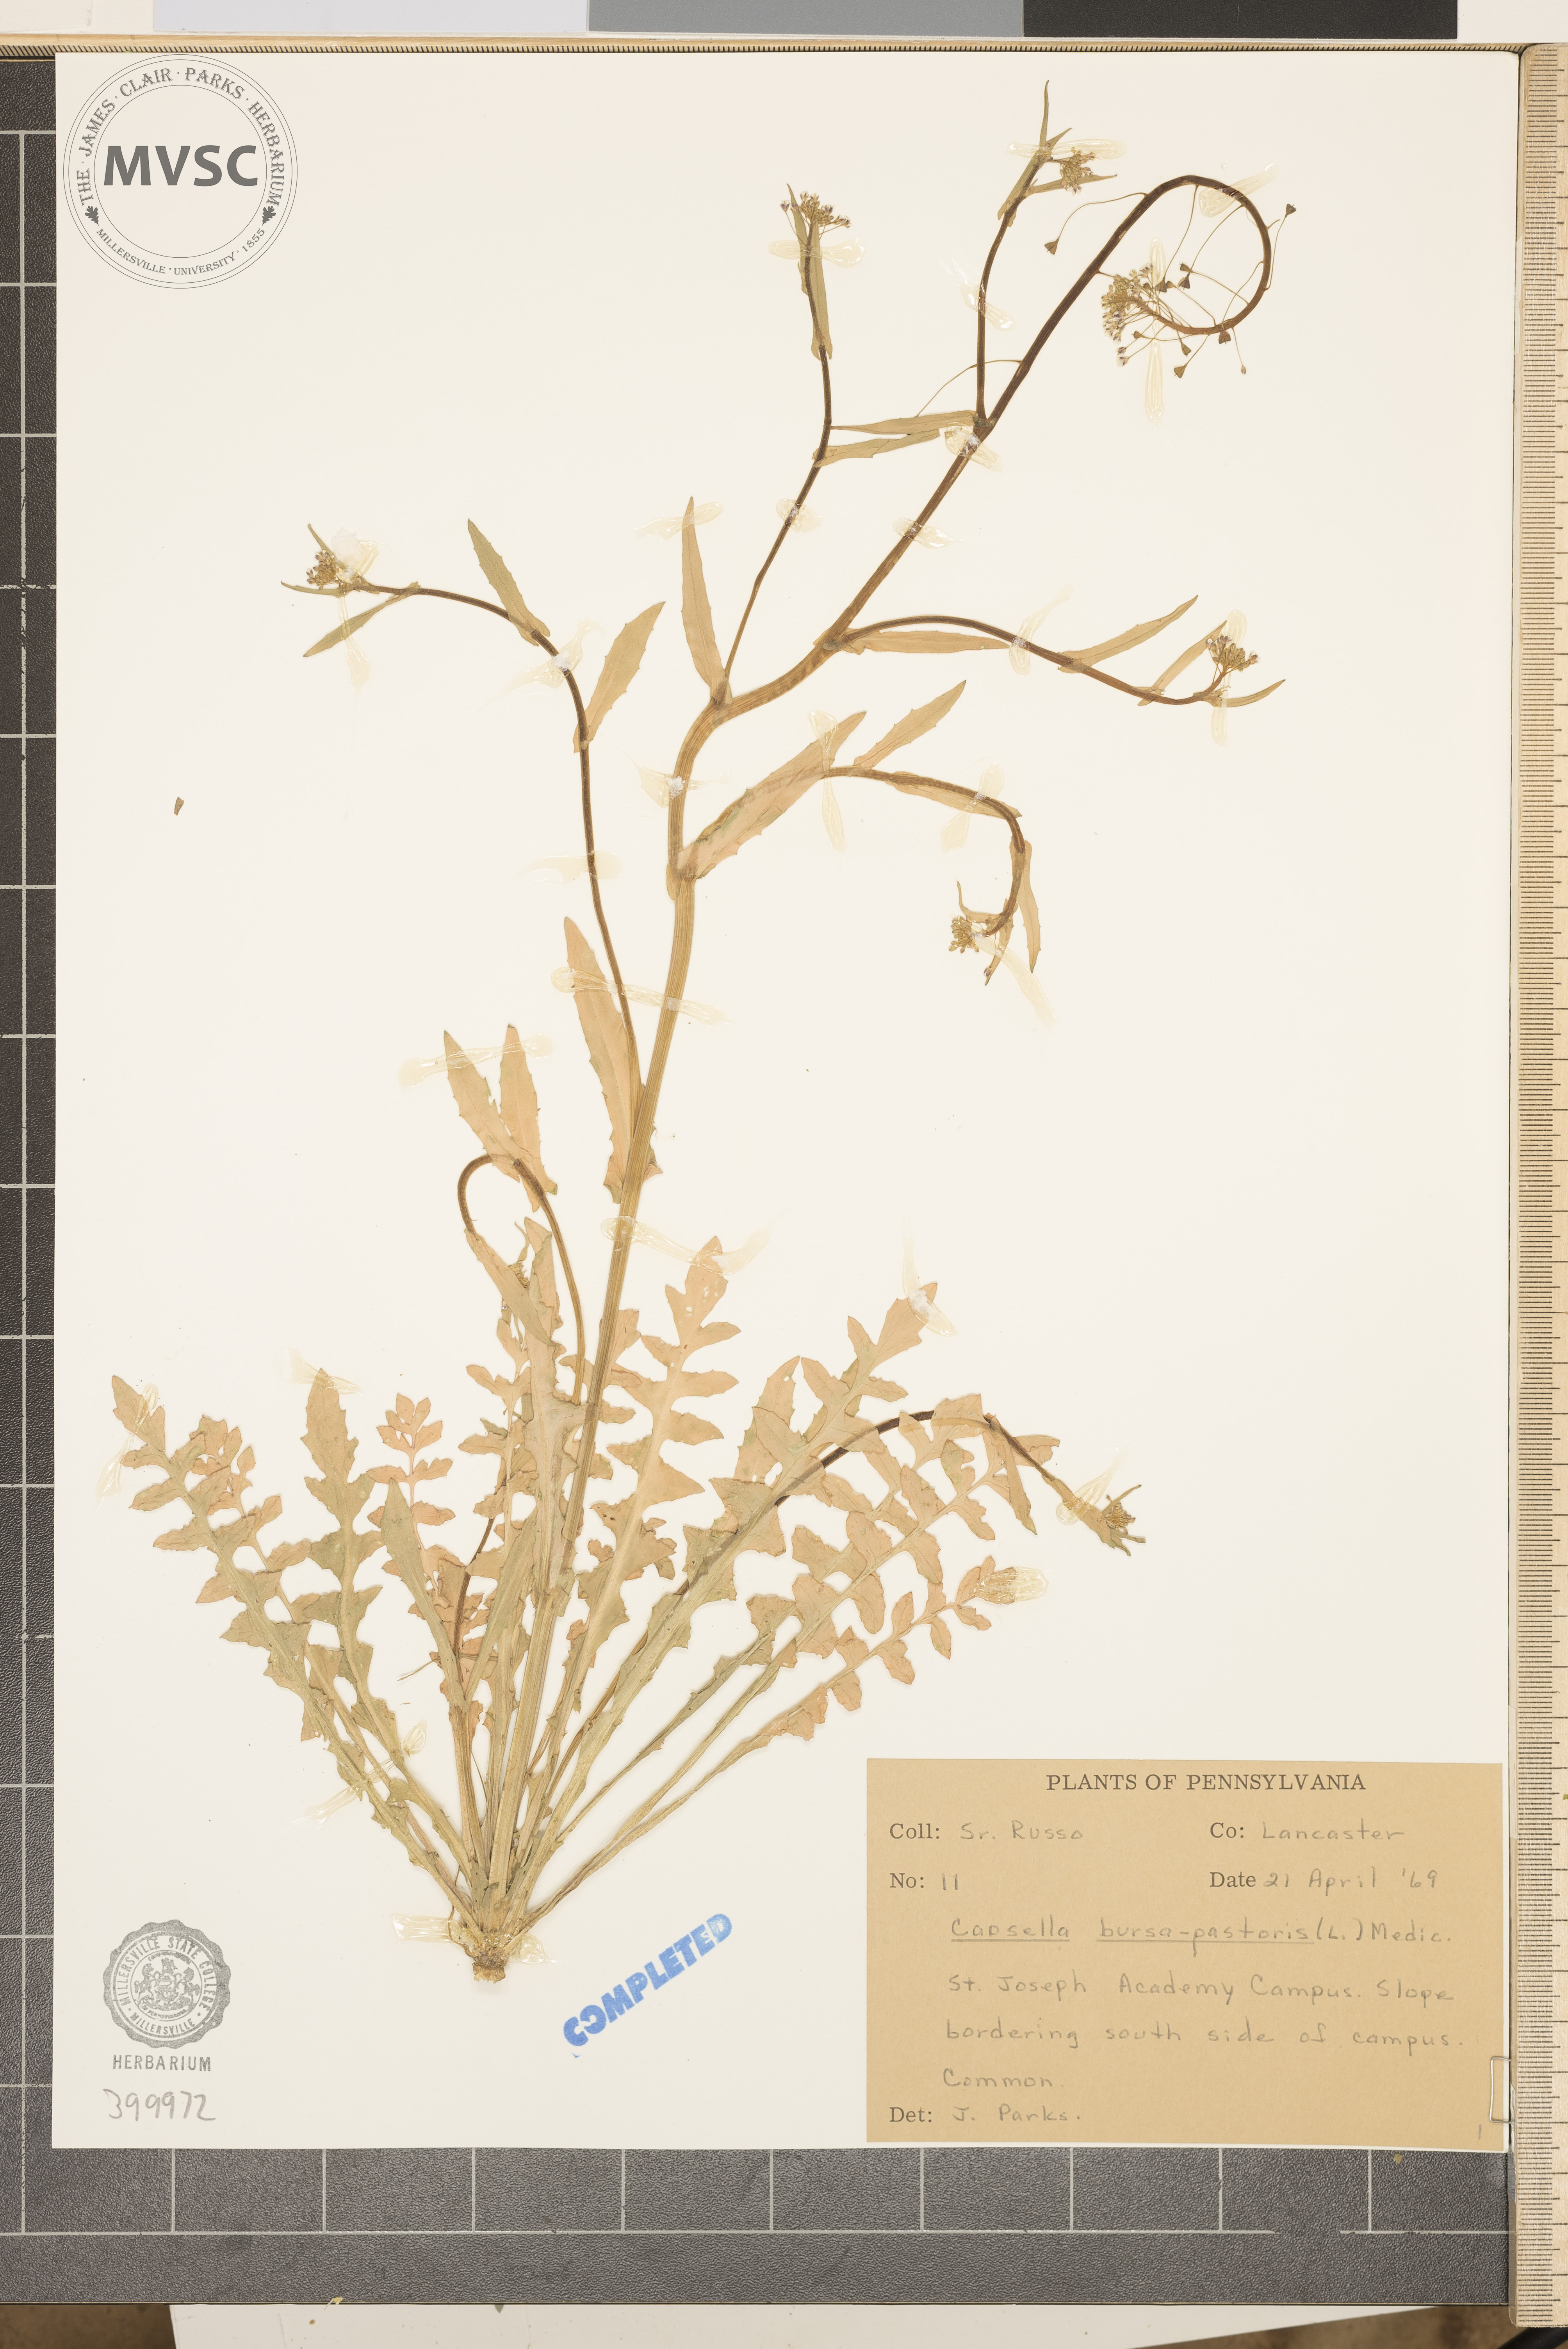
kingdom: Plantae
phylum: Tracheophyta
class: Magnoliopsida
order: Brassicales
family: Brassicaceae
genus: Capsella
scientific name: Capsella bursa-pastoris
